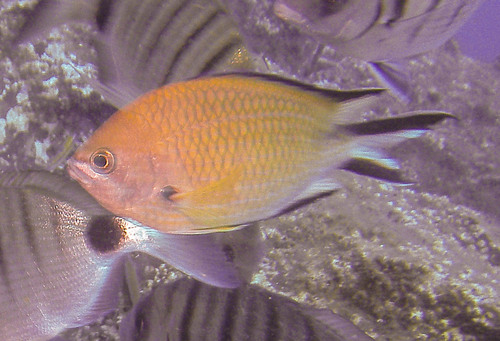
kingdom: Animalia
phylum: Chordata
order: Perciformes
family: Pomacentridae
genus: Chromis
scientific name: Chromis limbata
